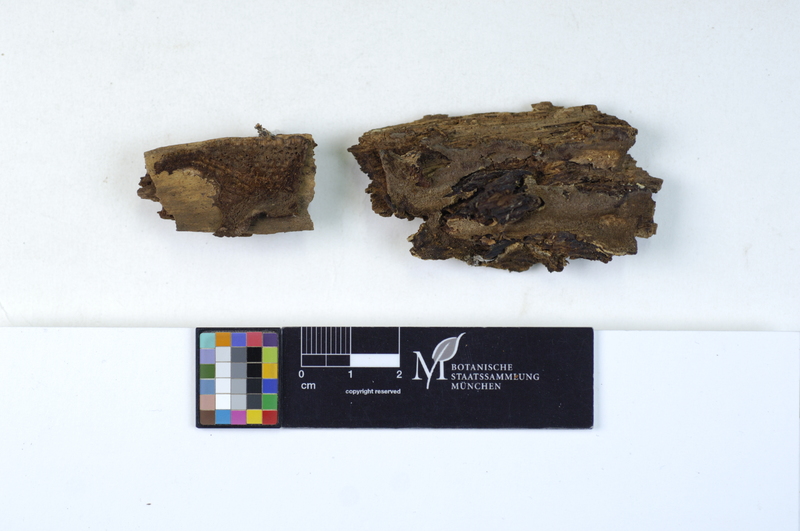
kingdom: Fungi
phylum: Basidiomycota
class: Agaricomycetes
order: Polyporales
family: Meripilaceae
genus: Rigidoporus
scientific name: Rigidoporus sanguinolentus
